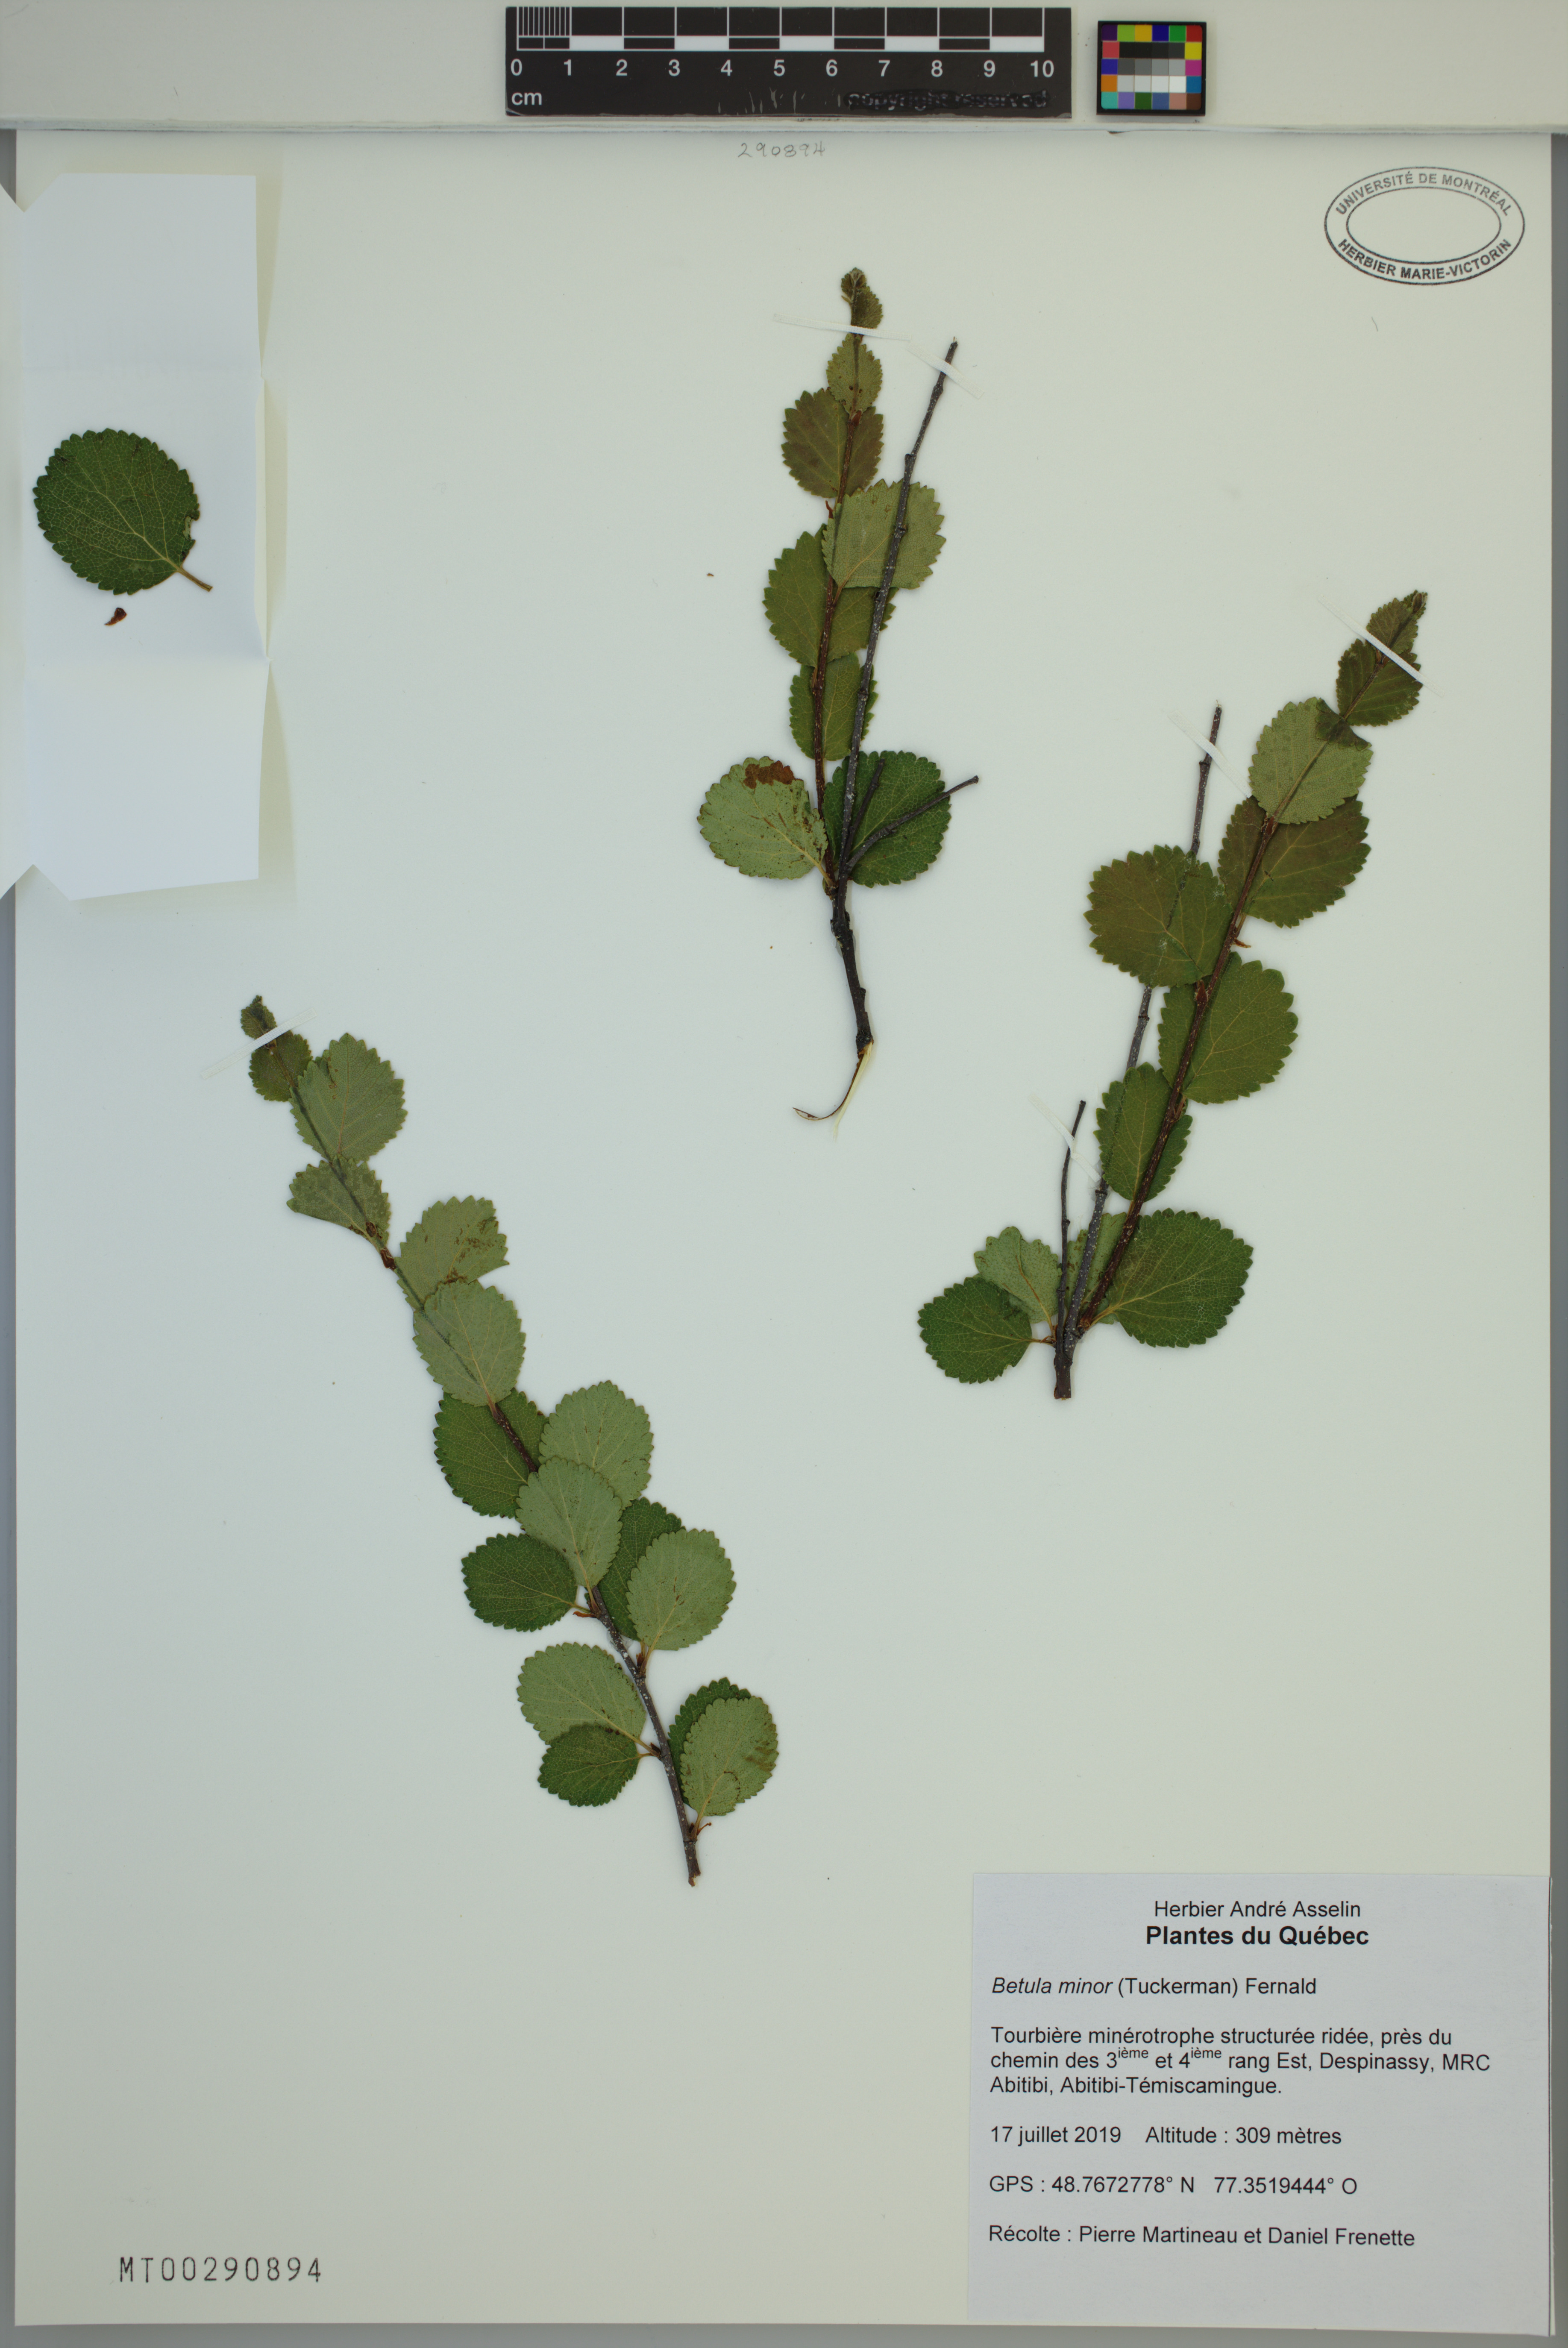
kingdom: Plantae
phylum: Tracheophyta
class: Magnoliopsida
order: Fagales
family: Betulaceae
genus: Betula
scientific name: Betula minor
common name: Dwarf birch
